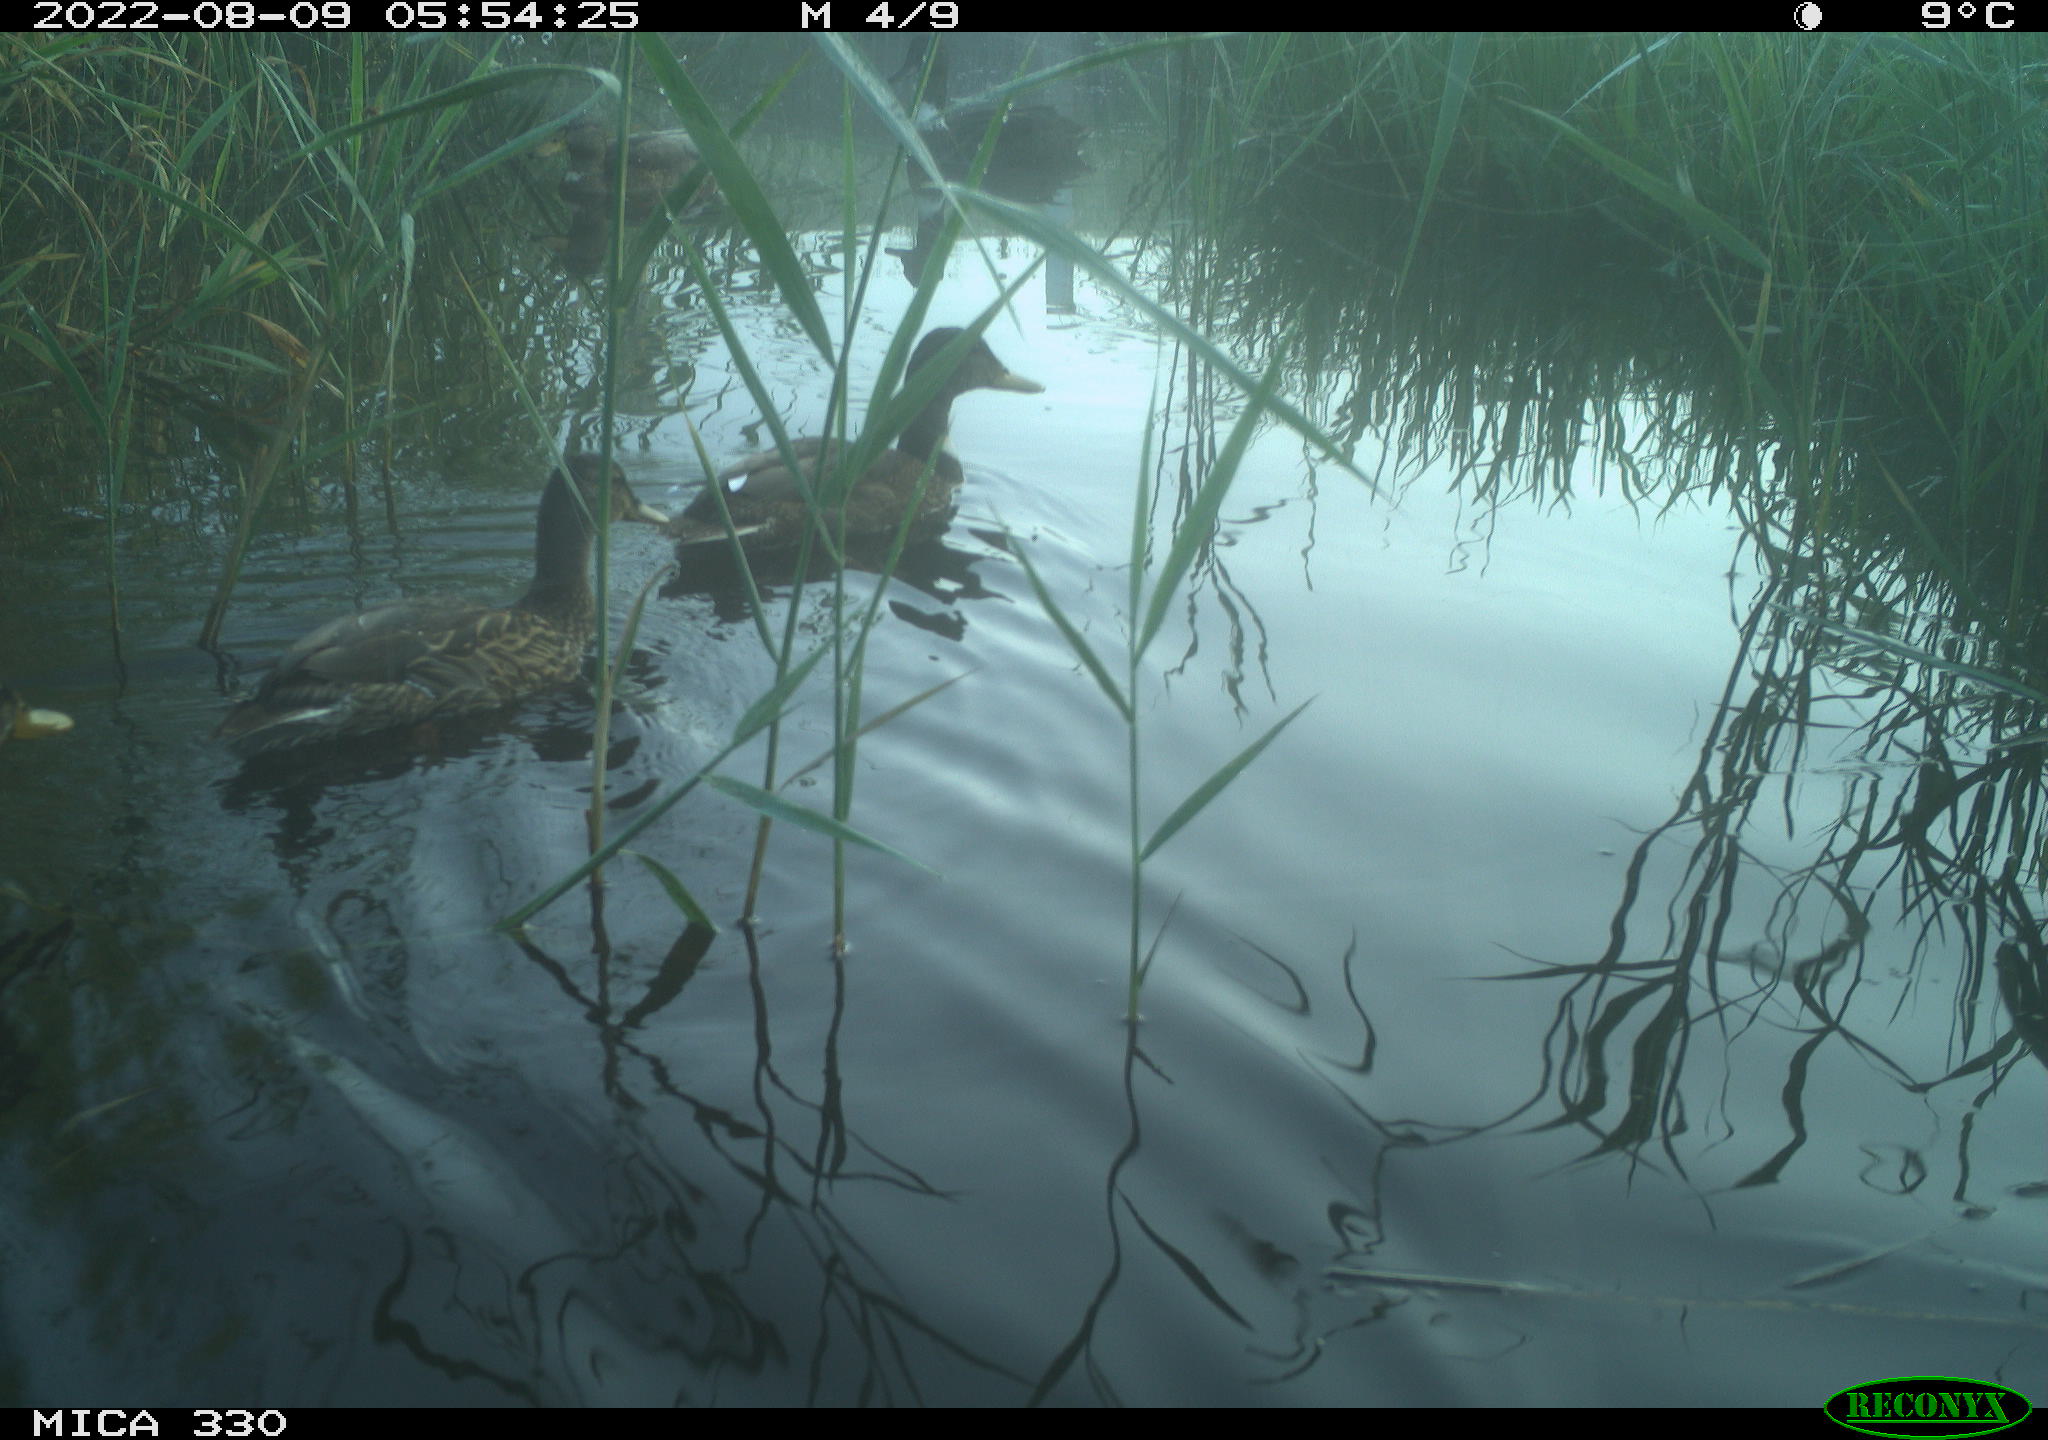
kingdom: Animalia
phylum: Chordata
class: Aves
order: Anseriformes
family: Anatidae
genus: Mareca
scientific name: Mareca strepera
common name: Gadwall
